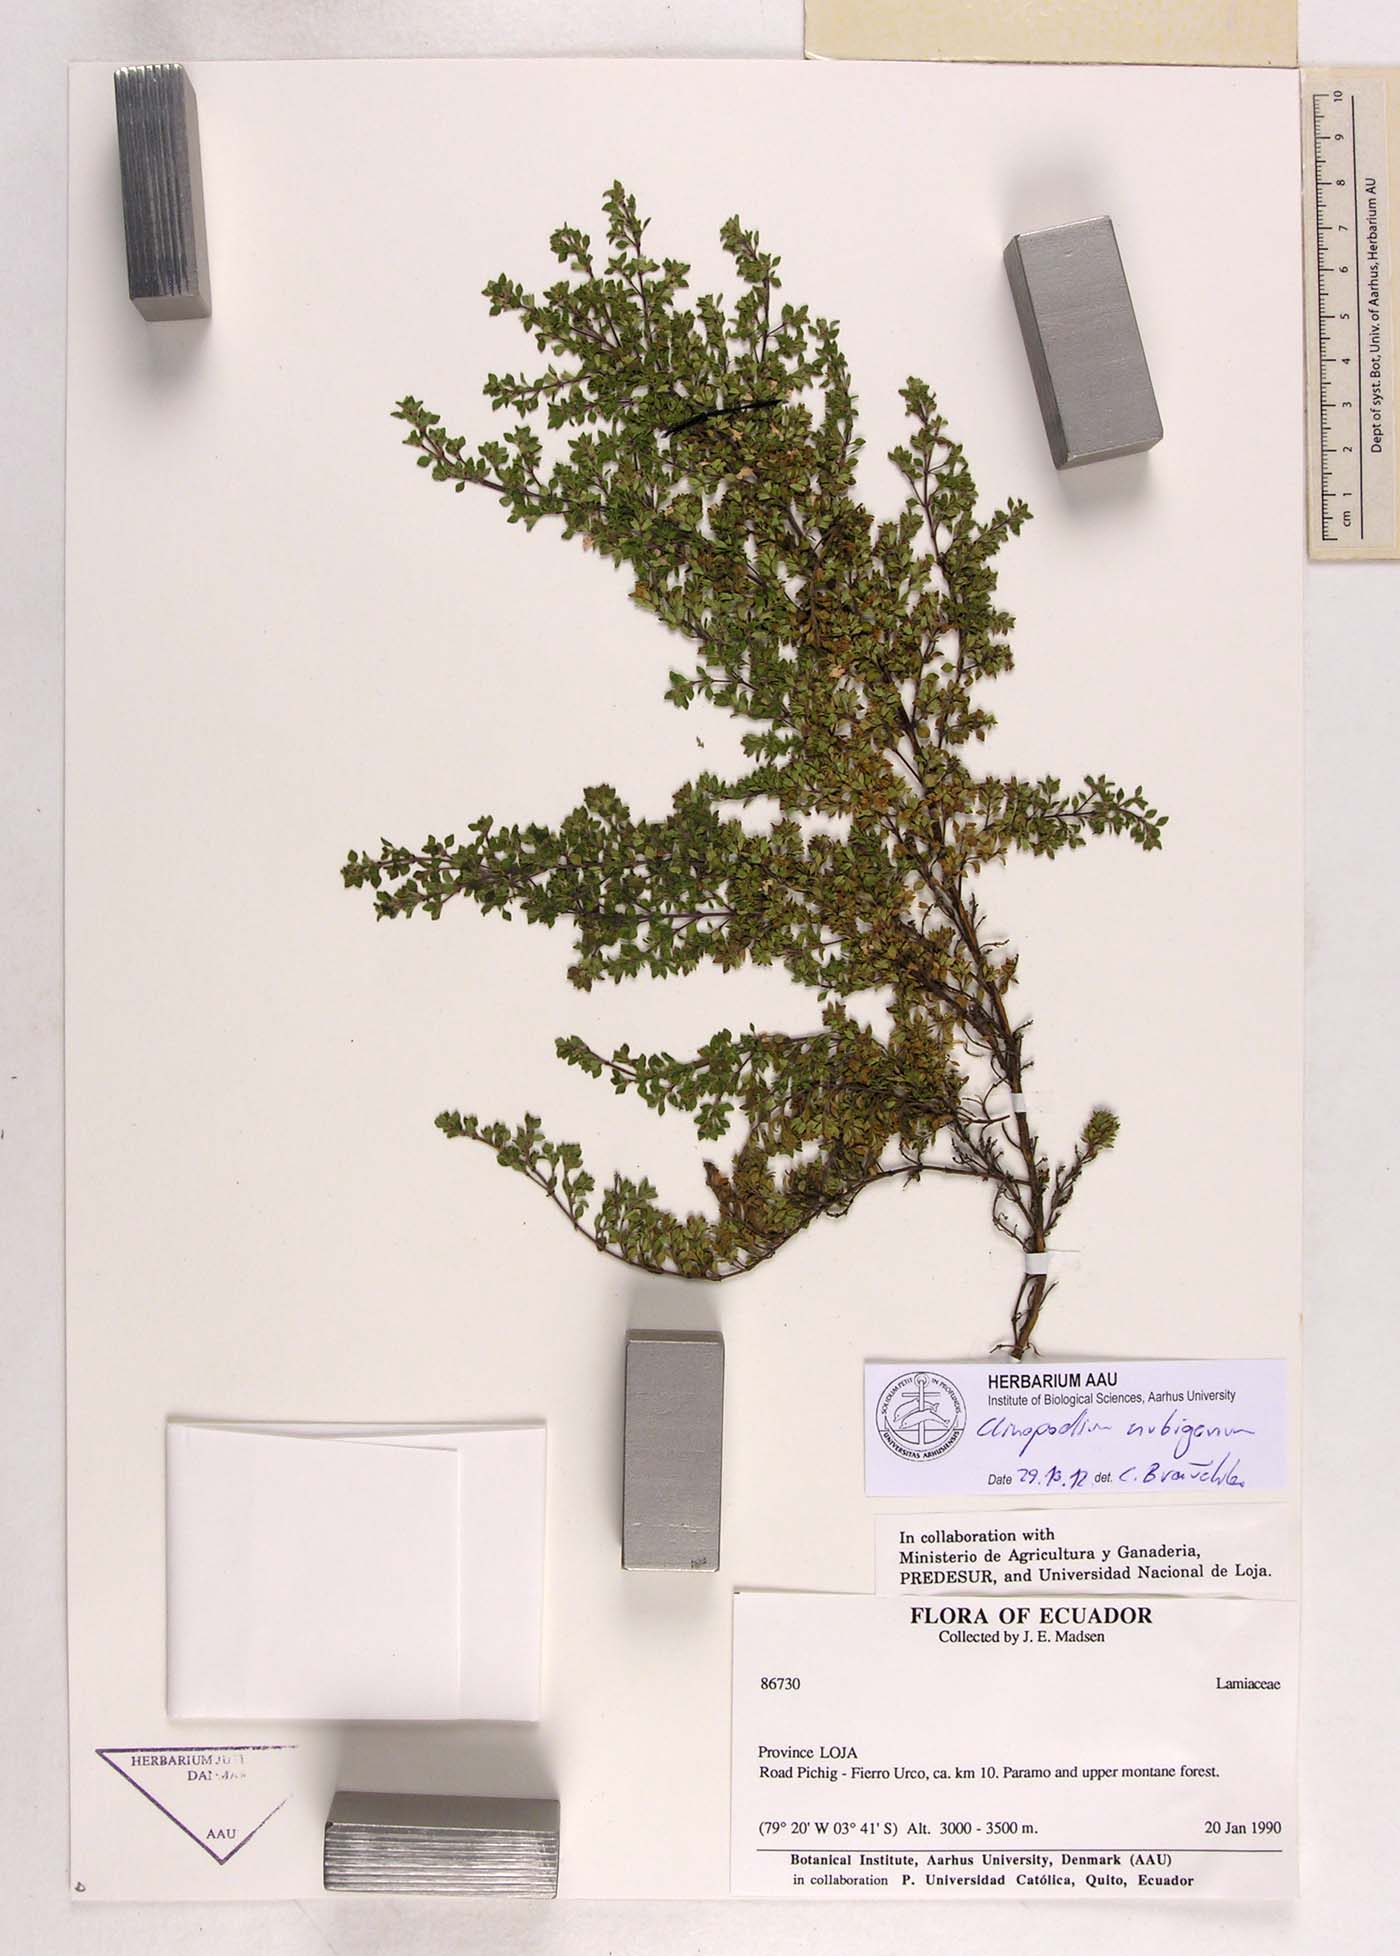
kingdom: Plantae
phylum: Tracheophyta
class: Magnoliopsida
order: Lamiales
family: Lamiaceae
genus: Clinopodium
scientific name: Clinopodium nubigenum
